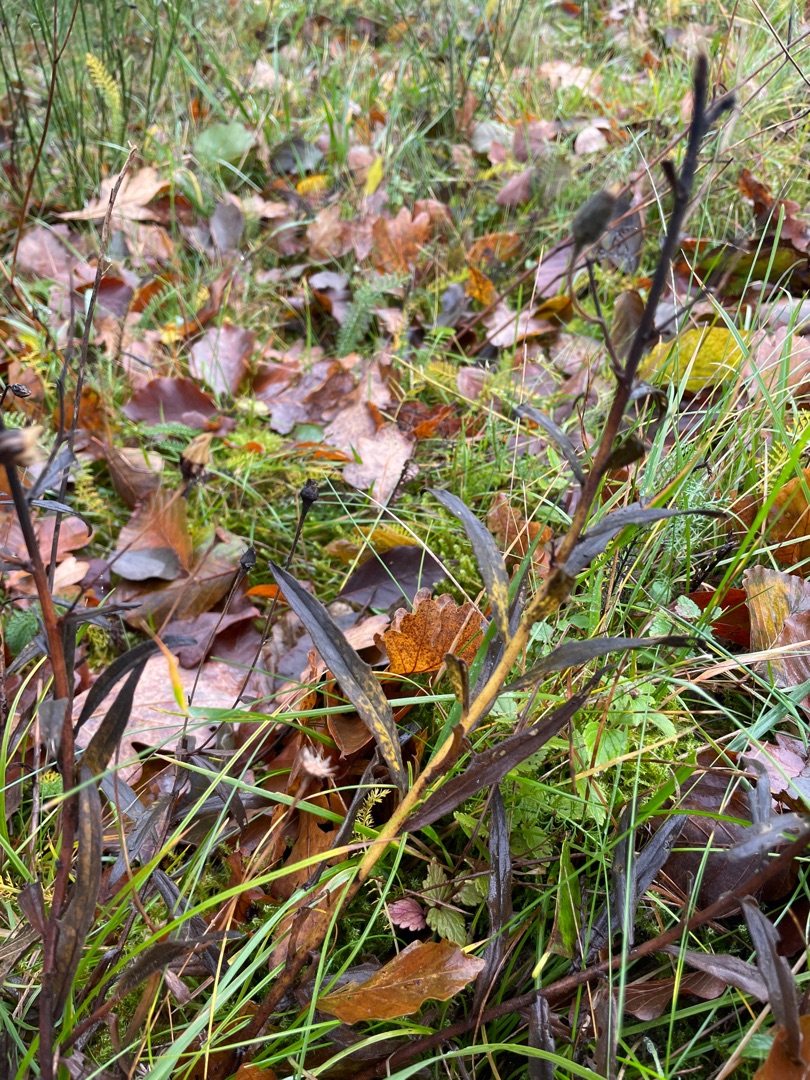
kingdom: Plantae
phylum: Tracheophyta
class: Magnoliopsida
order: Asterales
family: Asteraceae
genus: Hieracium
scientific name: Hieracium
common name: Høgeurt (Hieracium-slægten)
